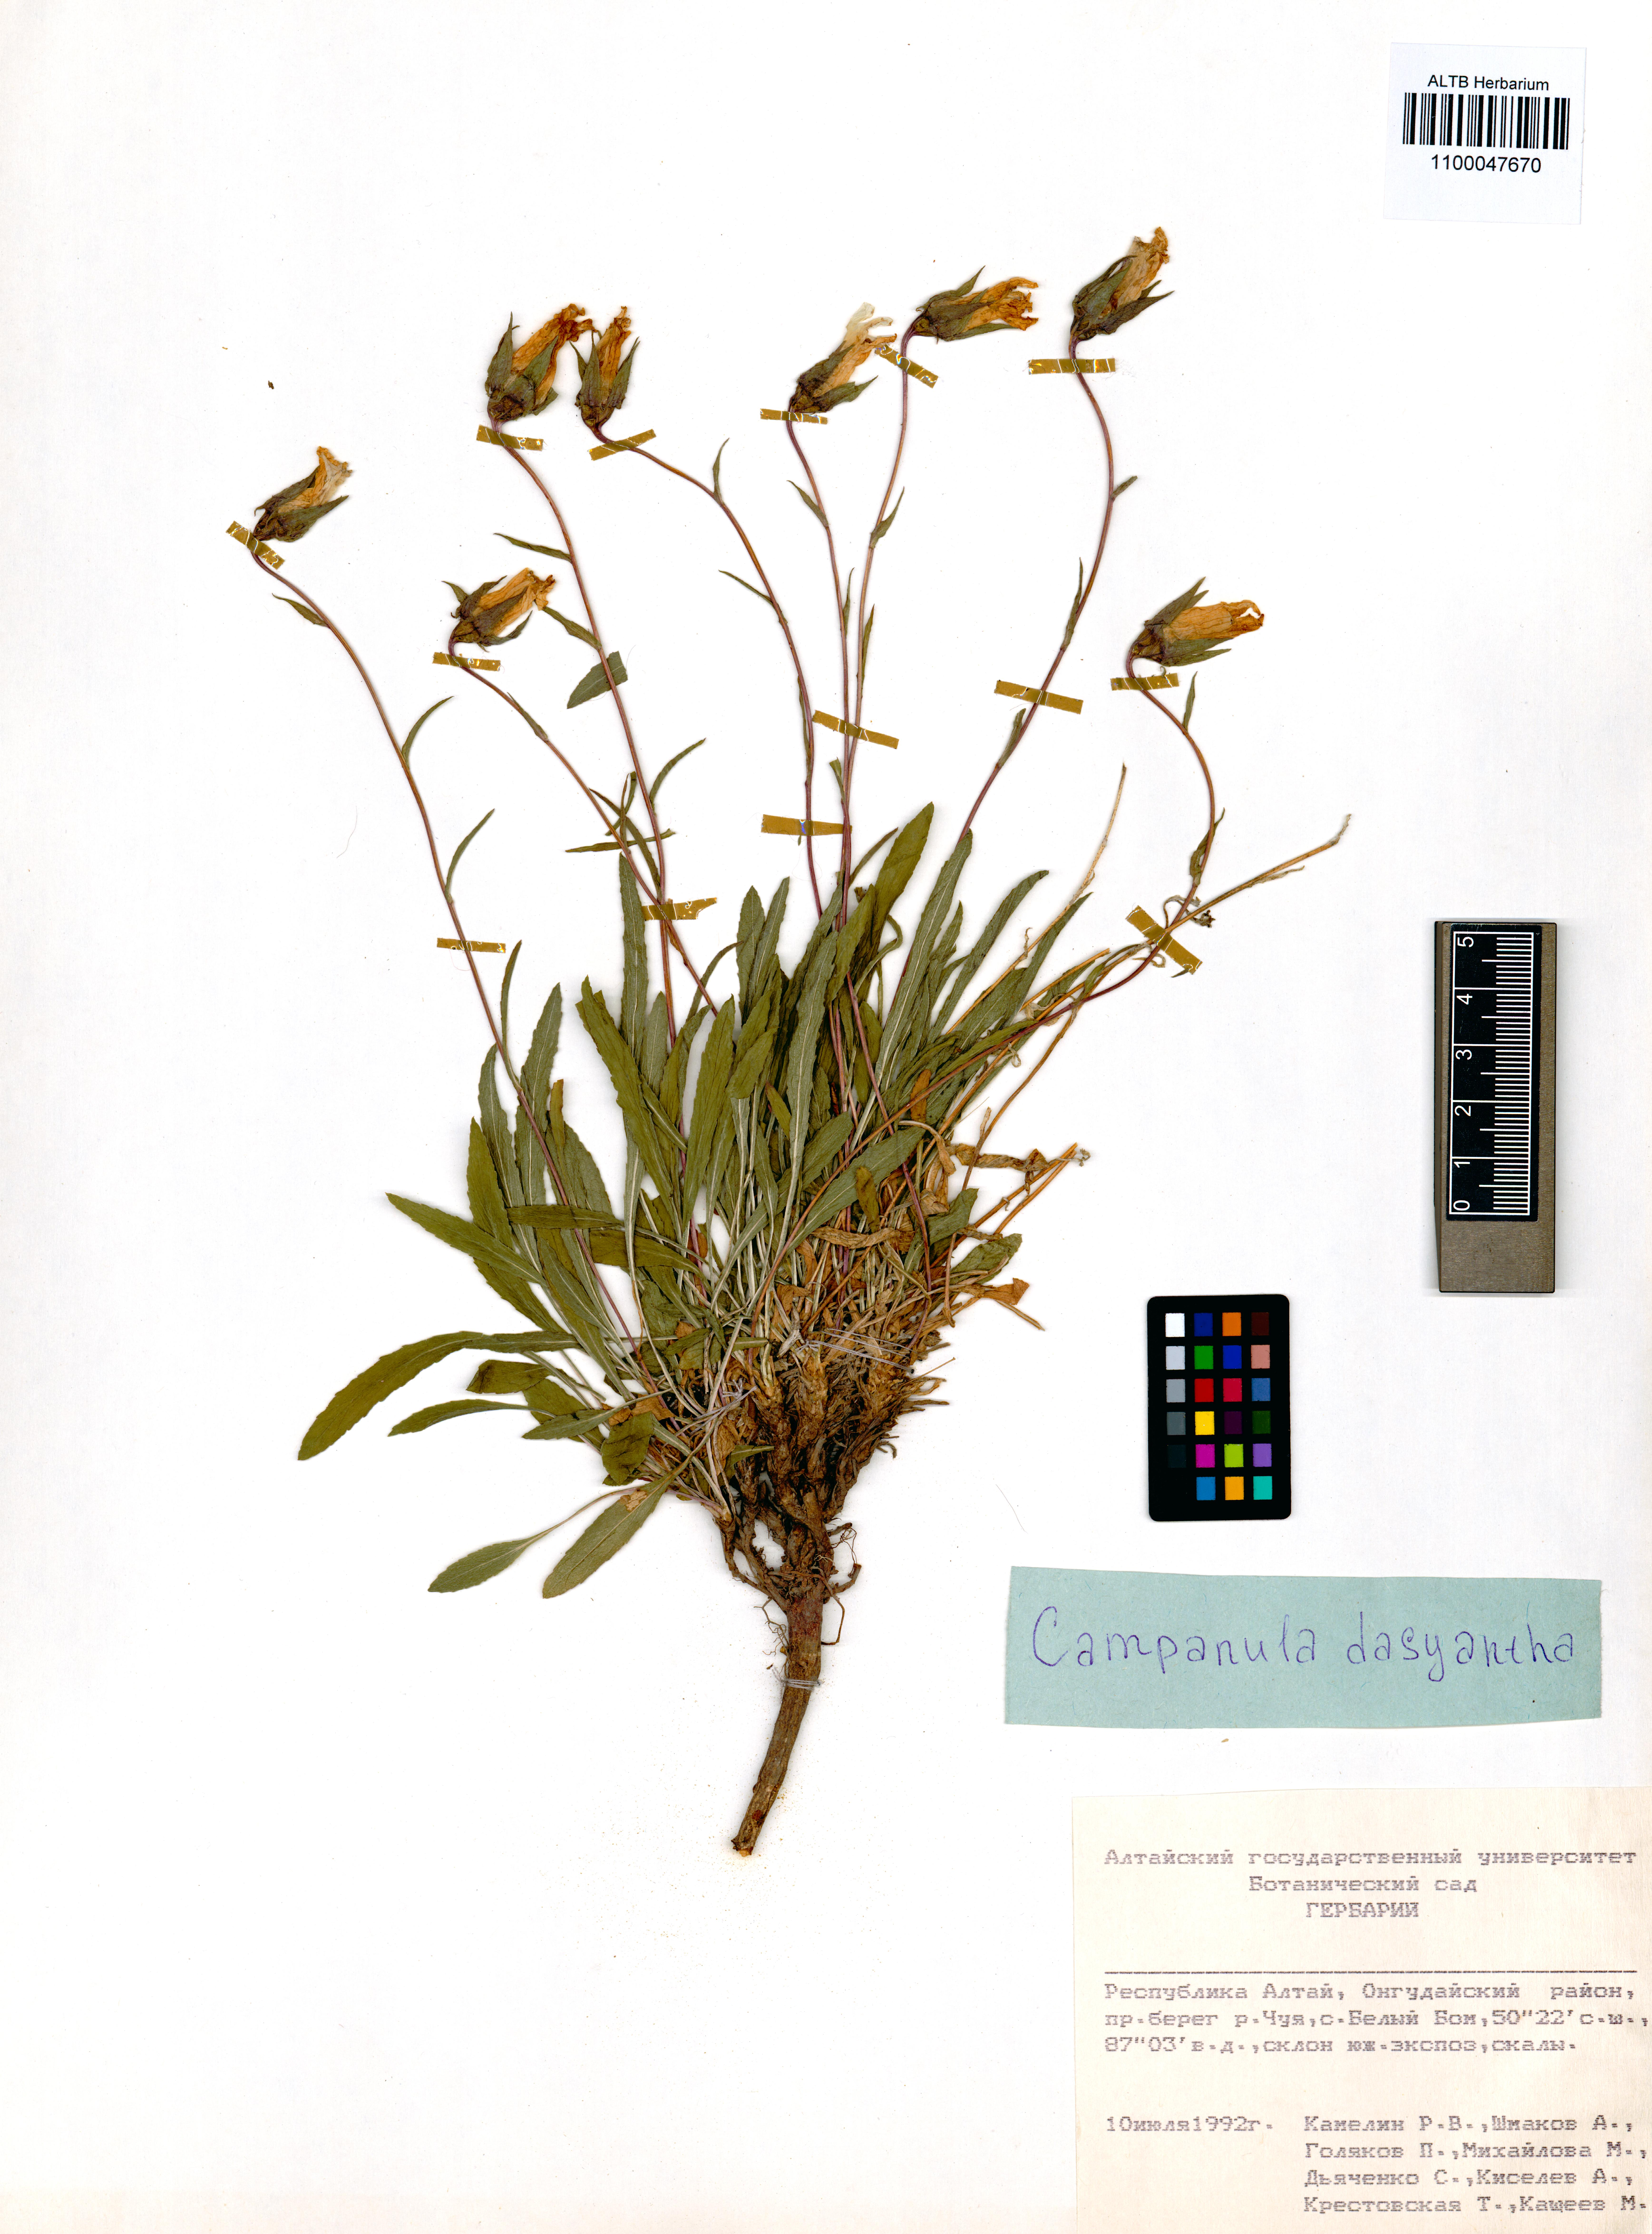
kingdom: Plantae
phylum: Tracheophyta
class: Magnoliopsida
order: Asterales
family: Campanulaceae
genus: Campanula
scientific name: Campanula dasyantha
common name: Hairyflower bellflower
